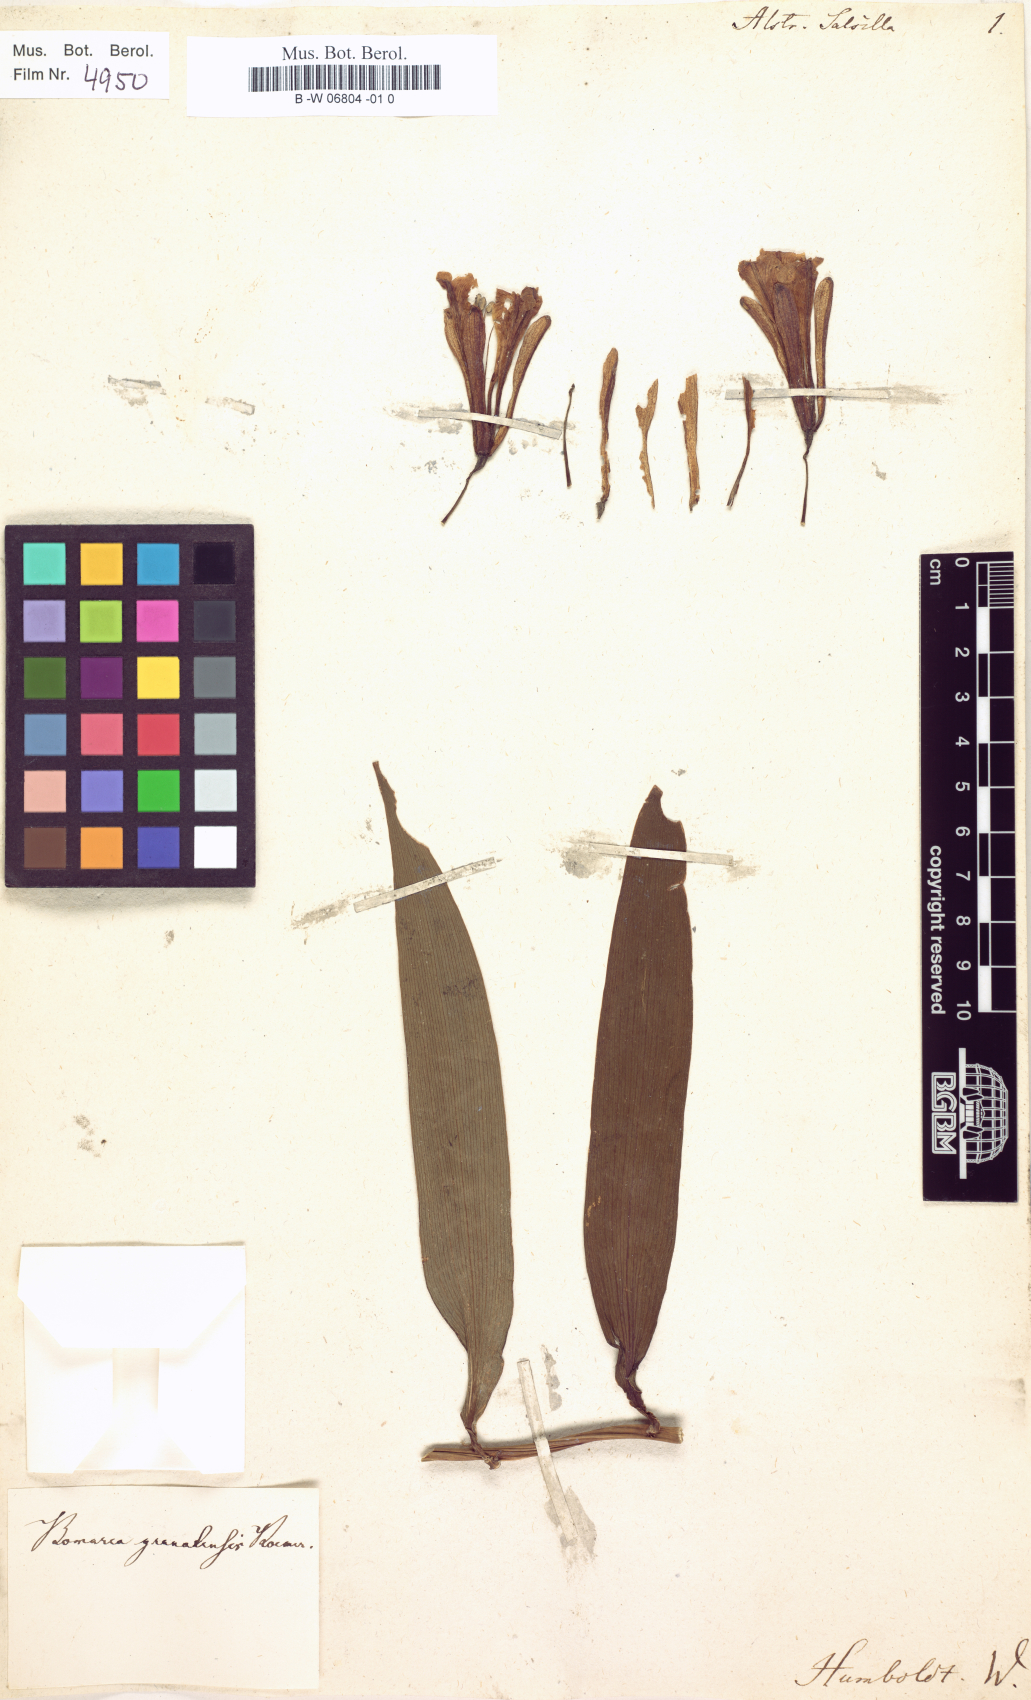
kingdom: Plantae
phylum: Tracheophyta
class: Liliopsida
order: Liliales
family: Alstroemeriaceae
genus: Bomarea
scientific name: Bomarea salsilla
